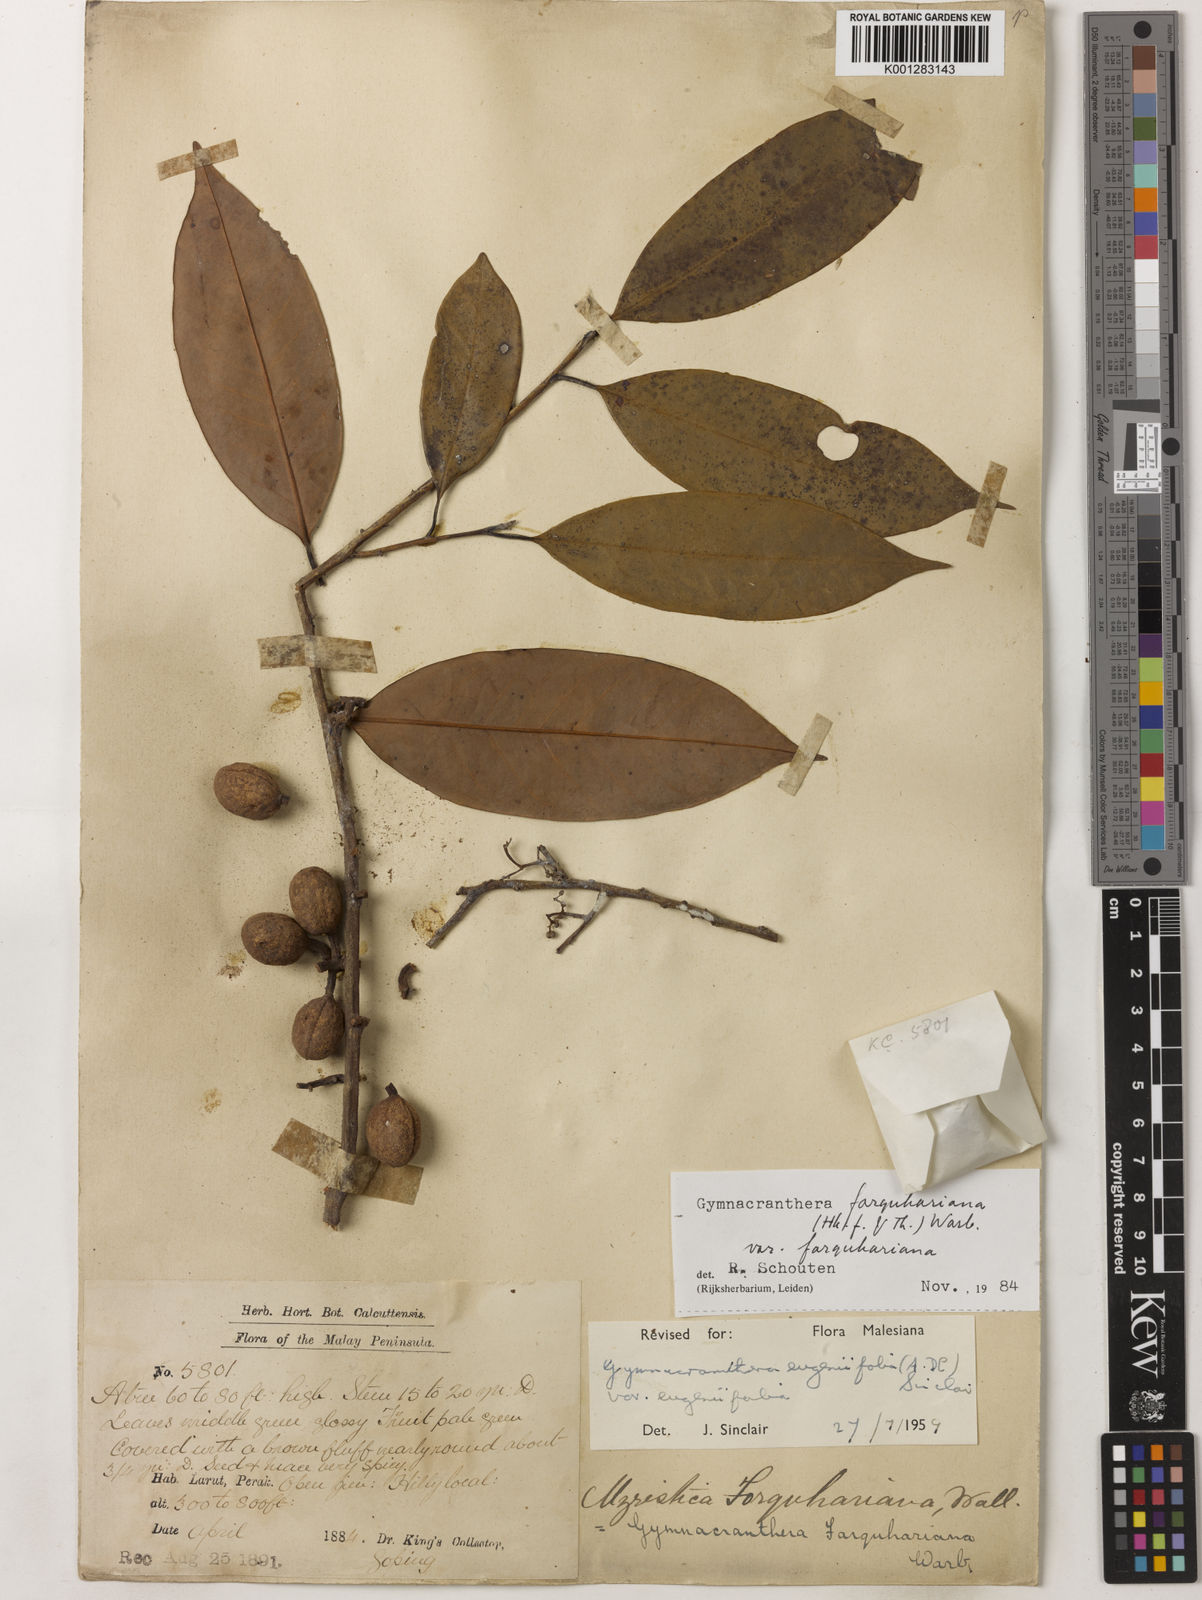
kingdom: Plantae
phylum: Tracheophyta
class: Magnoliopsida
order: Magnoliales
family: Myristicaceae
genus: Gymnacranthera
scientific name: Gymnacranthera farquhariana
